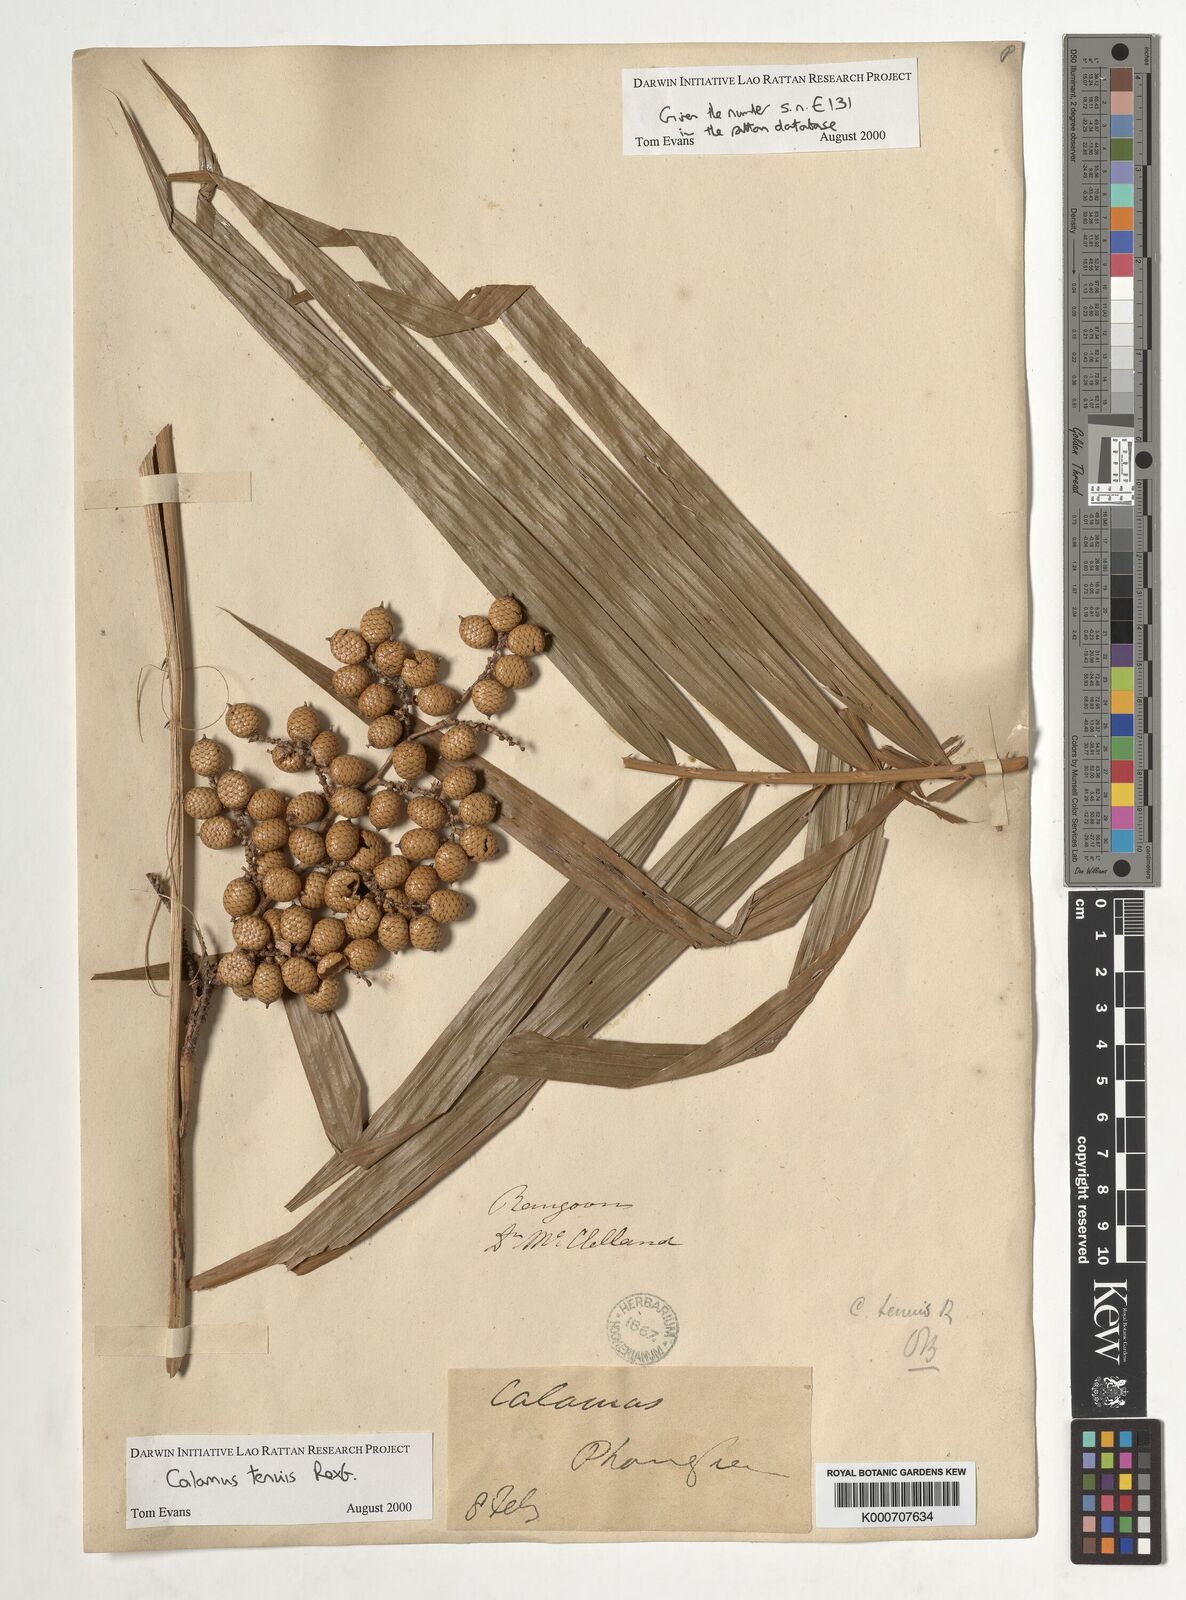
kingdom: Plantae
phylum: Tracheophyta
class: Liliopsida
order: Arecales
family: Arecaceae
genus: Calamus
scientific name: Calamus tenuis
